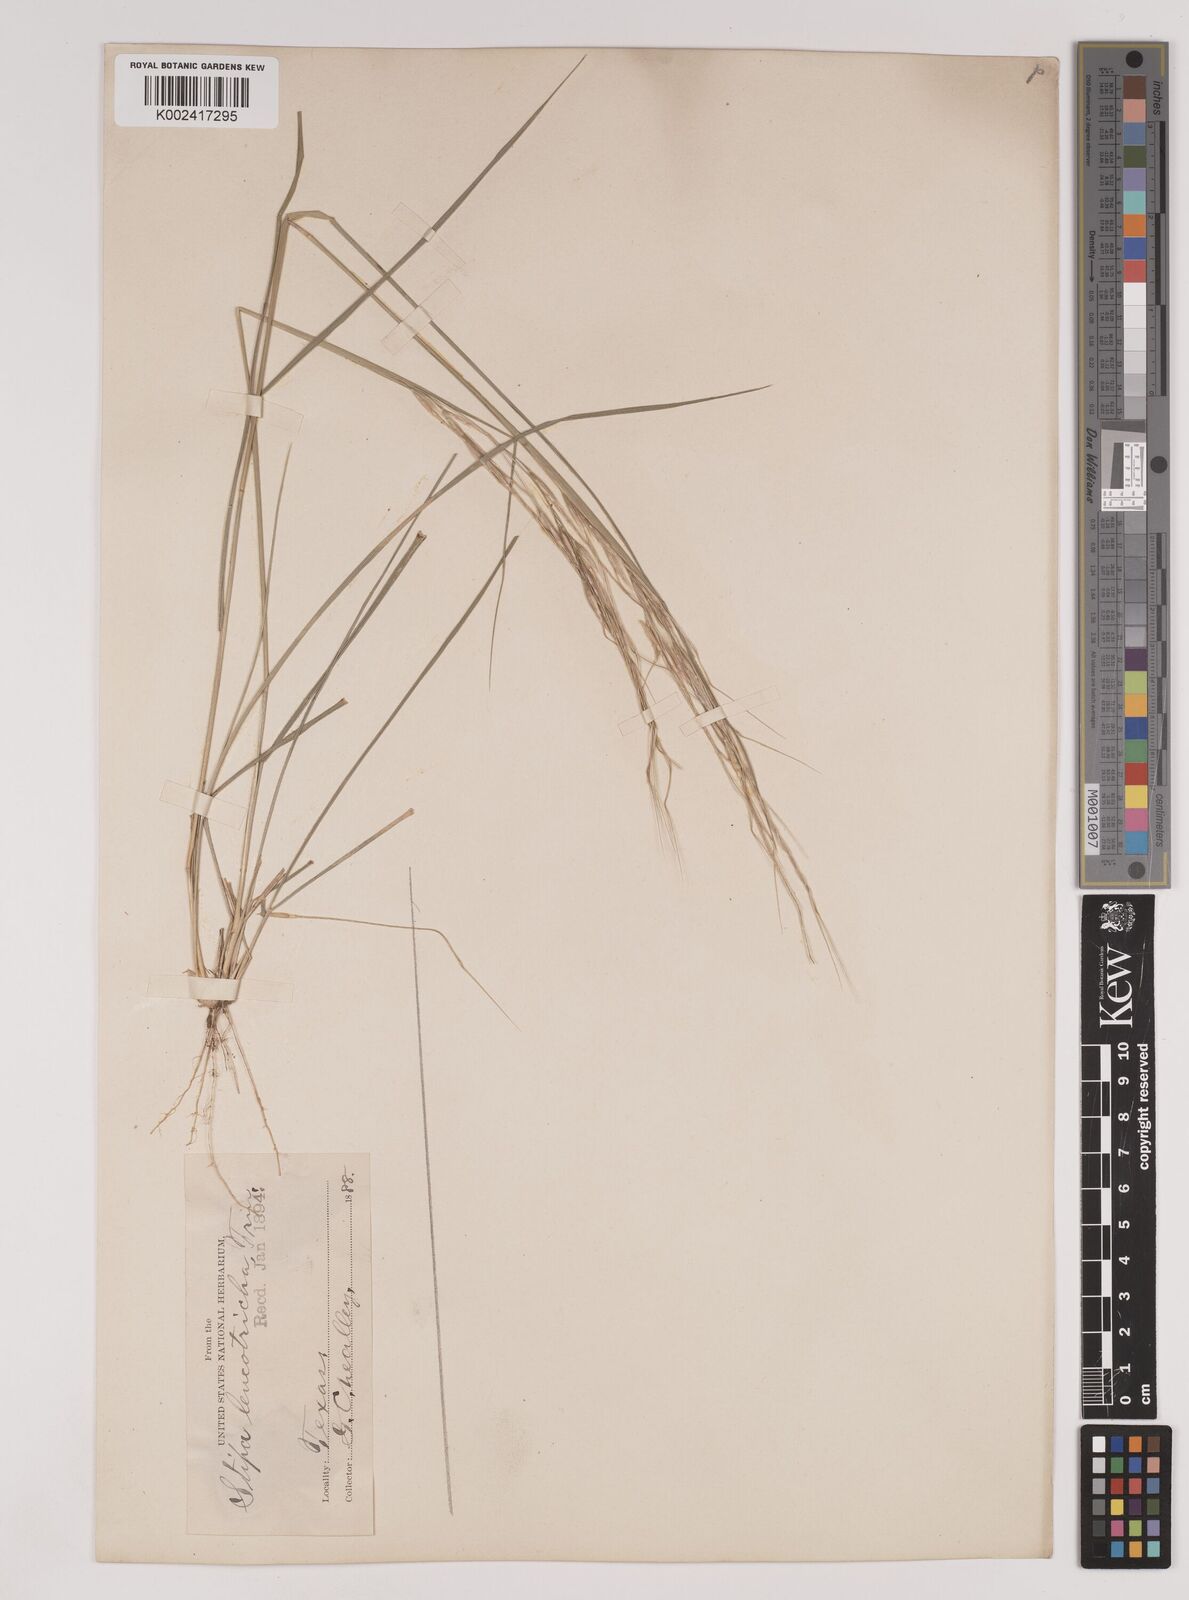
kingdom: Plantae
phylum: Tracheophyta
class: Liliopsida
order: Poales
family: Poaceae
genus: Nassella
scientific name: Nassella leucotricha
